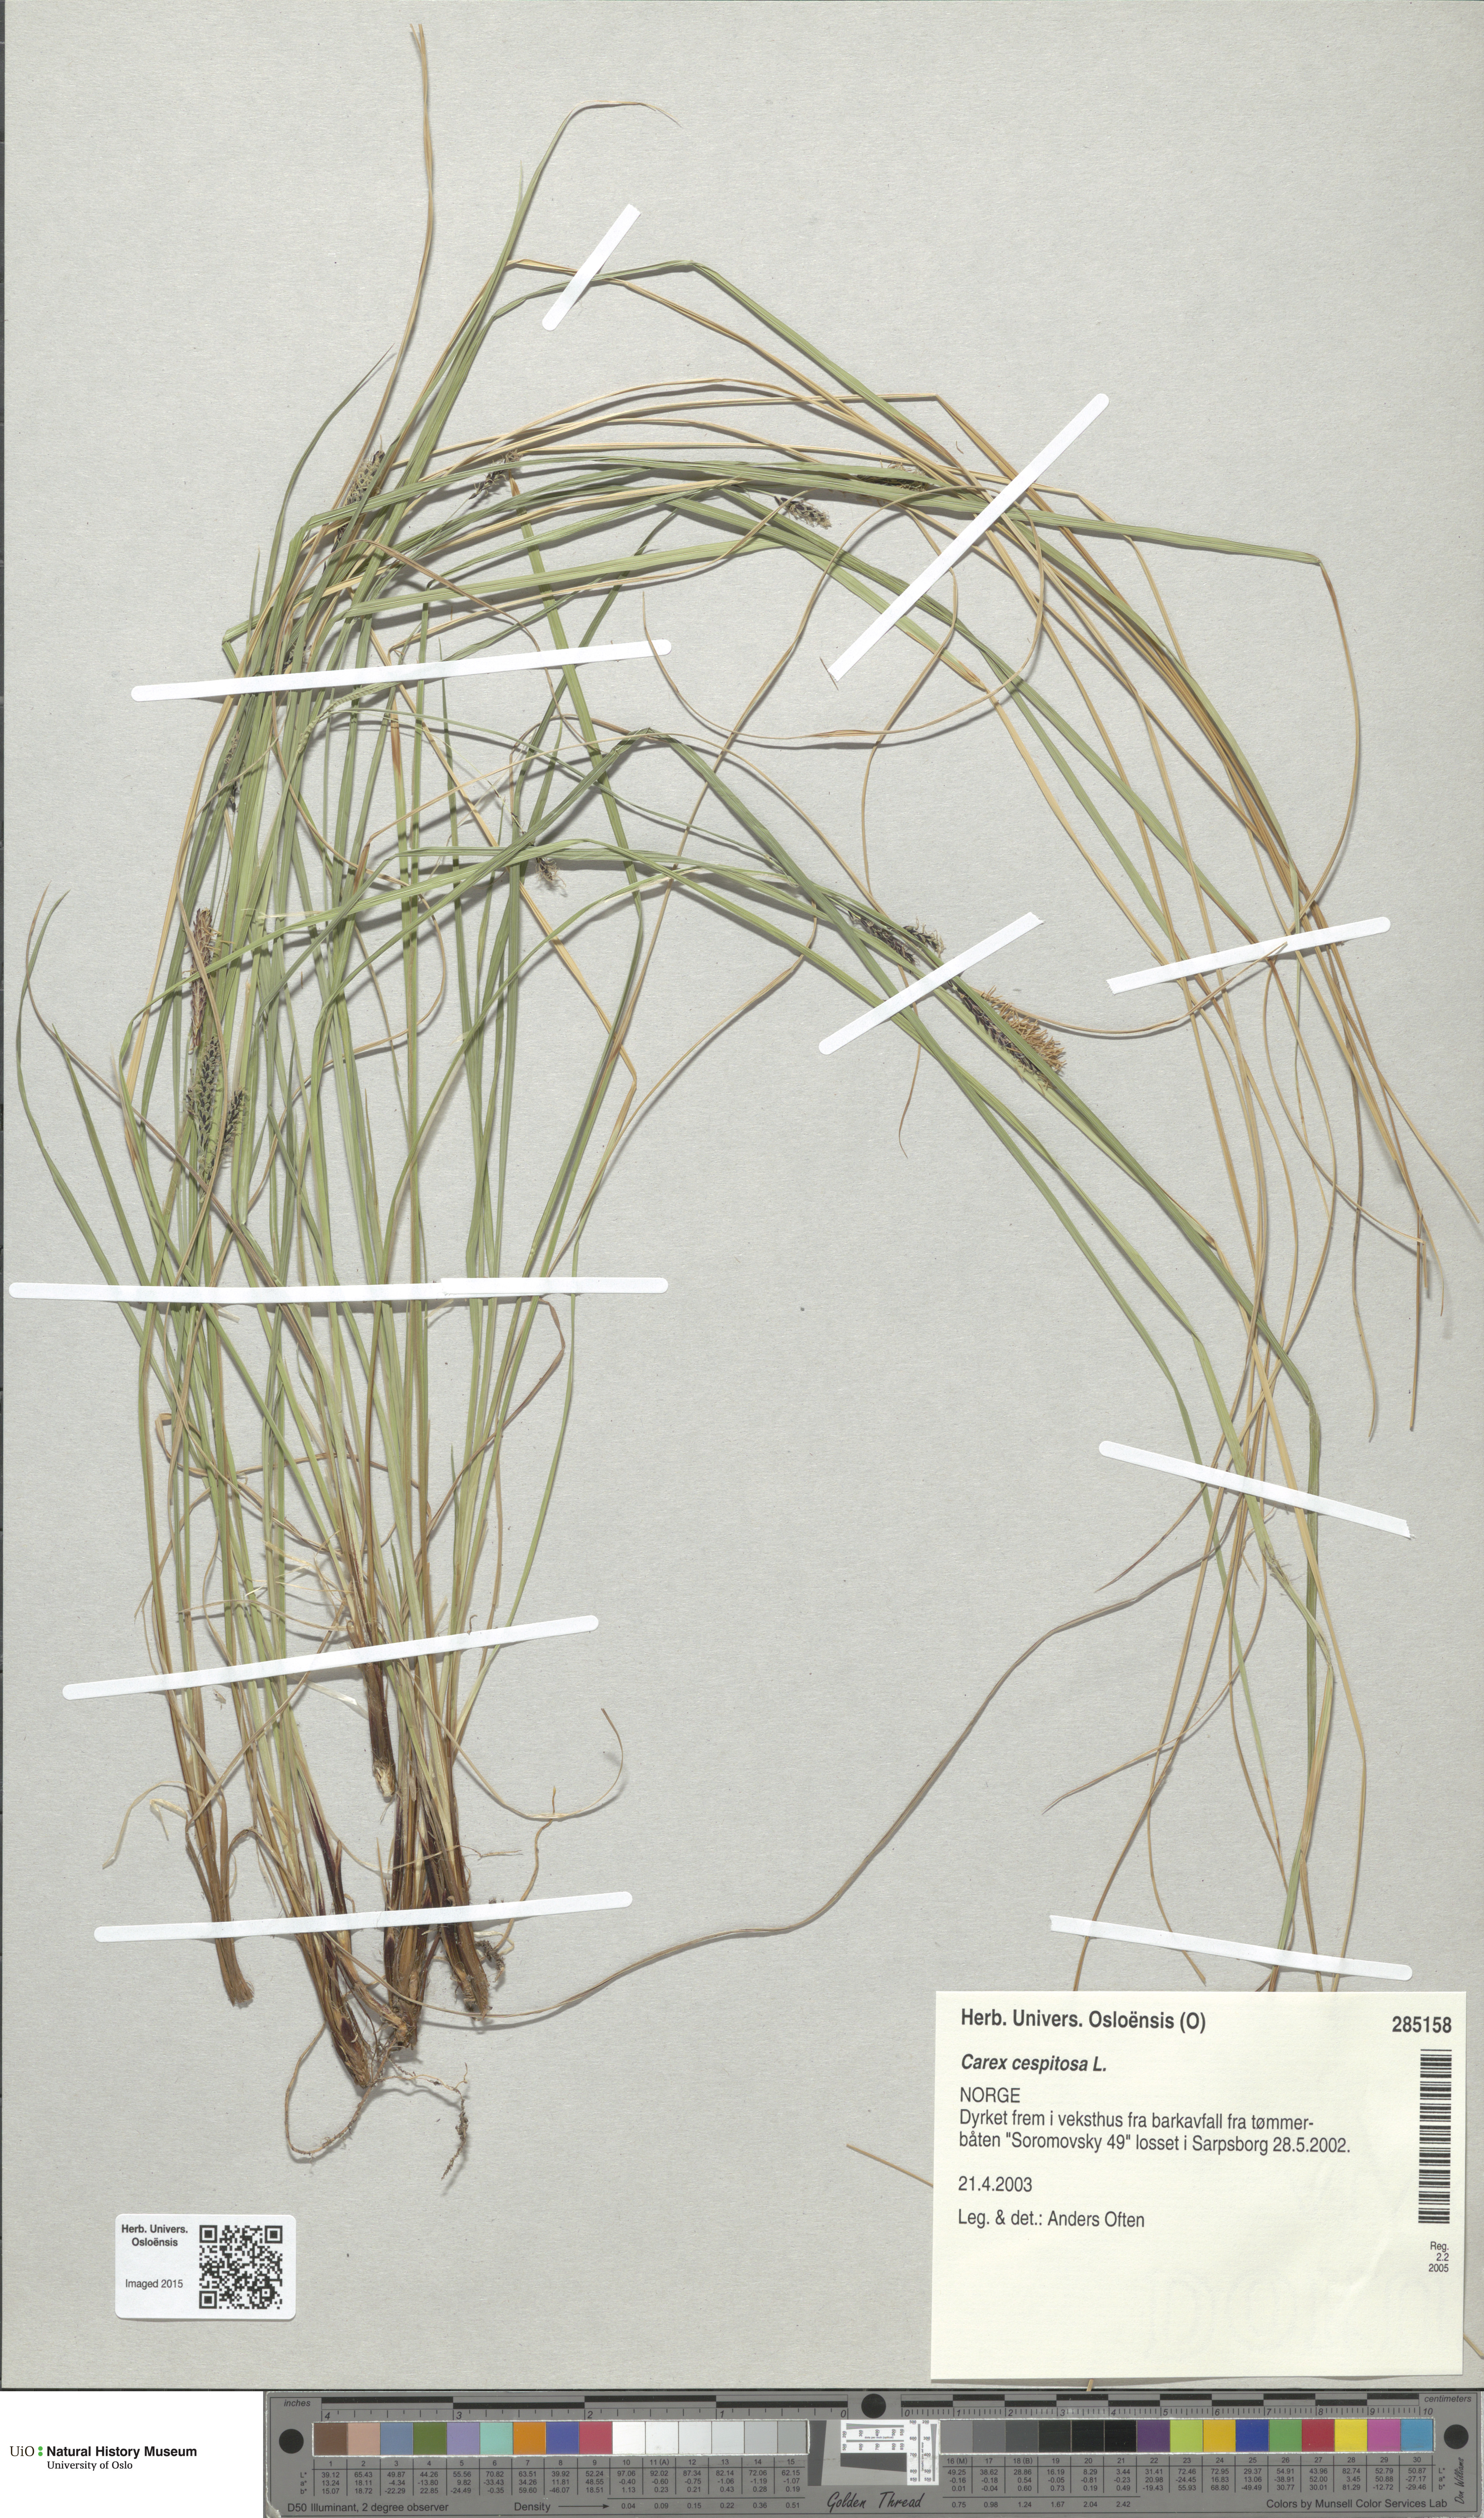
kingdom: Plantae
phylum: Tracheophyta
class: Liliopsida
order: Poales
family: Cyperaceae
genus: Carex
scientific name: Carex cespitosa
